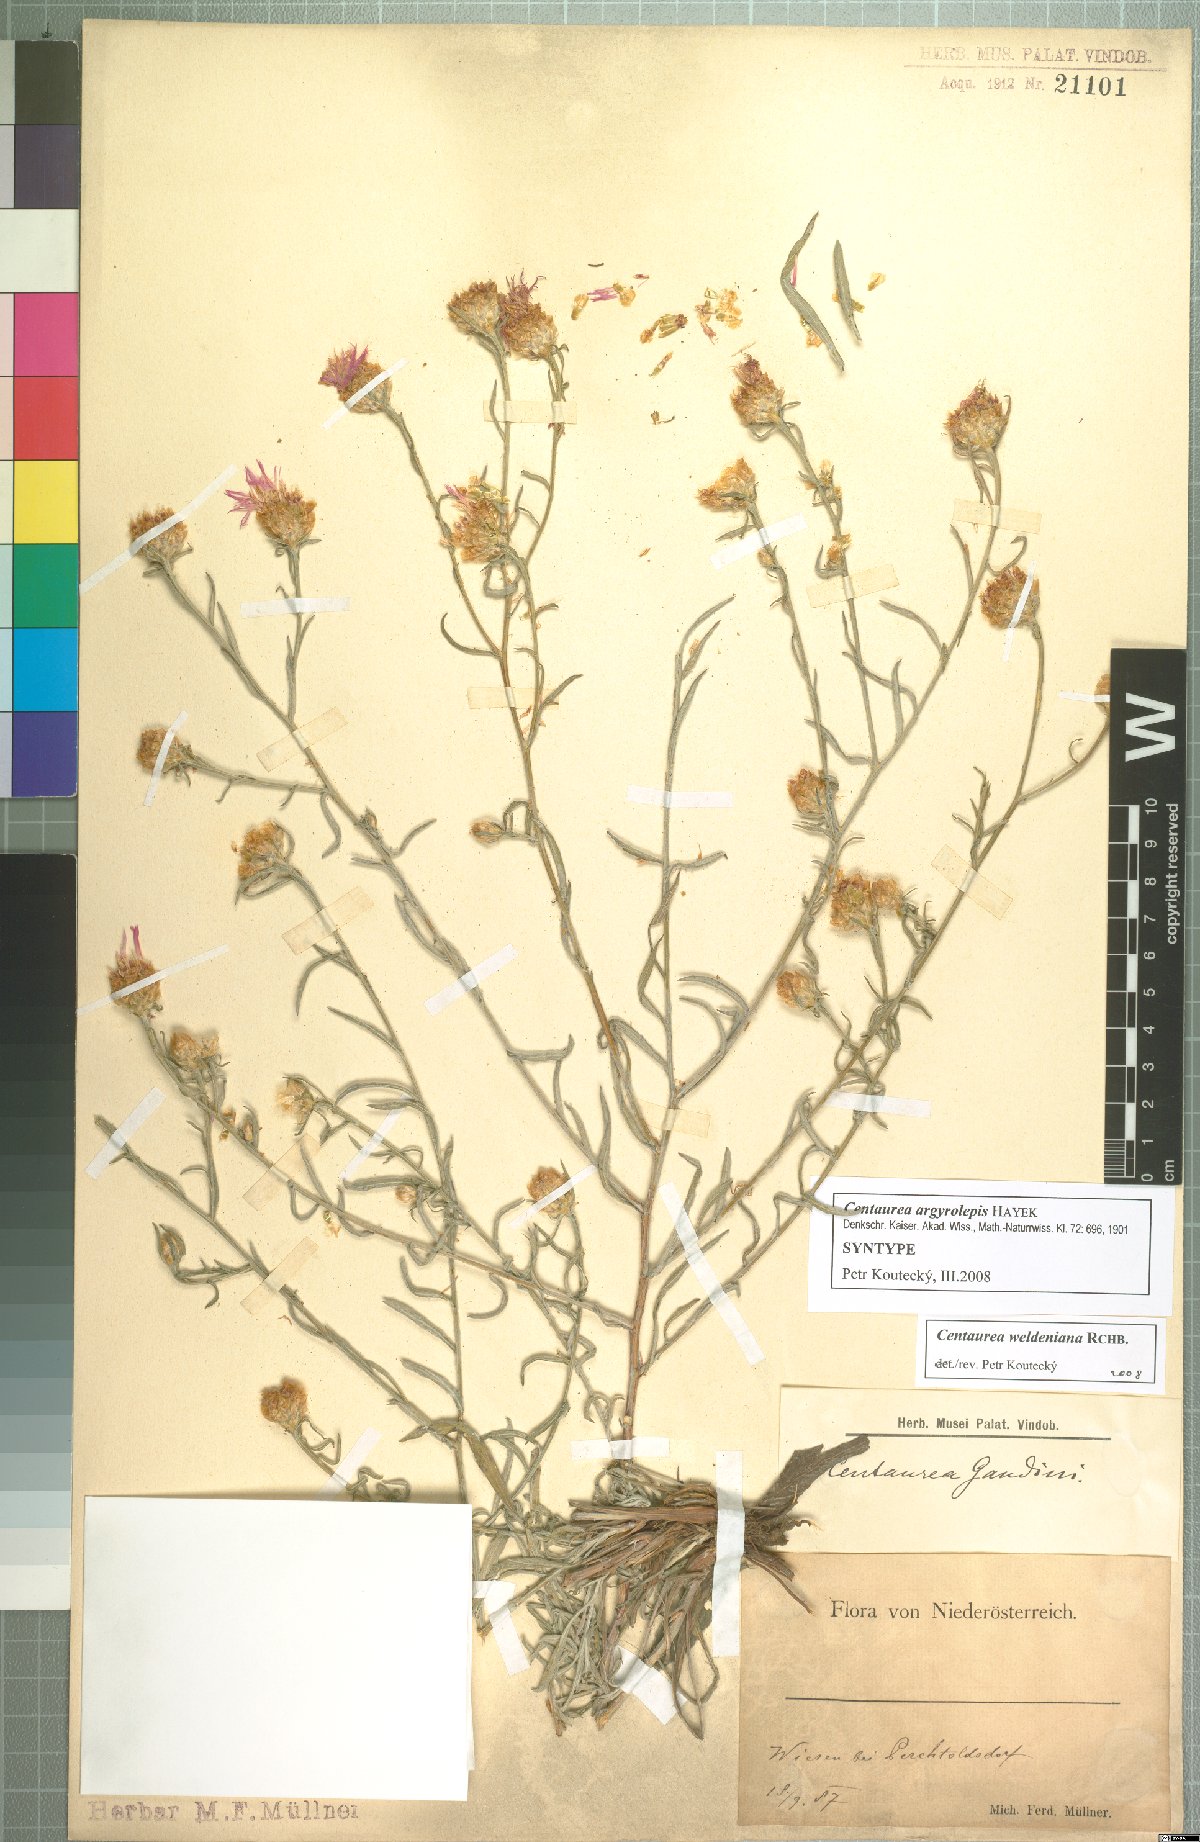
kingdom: Plantae
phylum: Tracheophyta
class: Magnoliopsida
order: Asterales
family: Asteraceae
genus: Centaurea
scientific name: Centaurea jacea
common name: Brown knapweed
